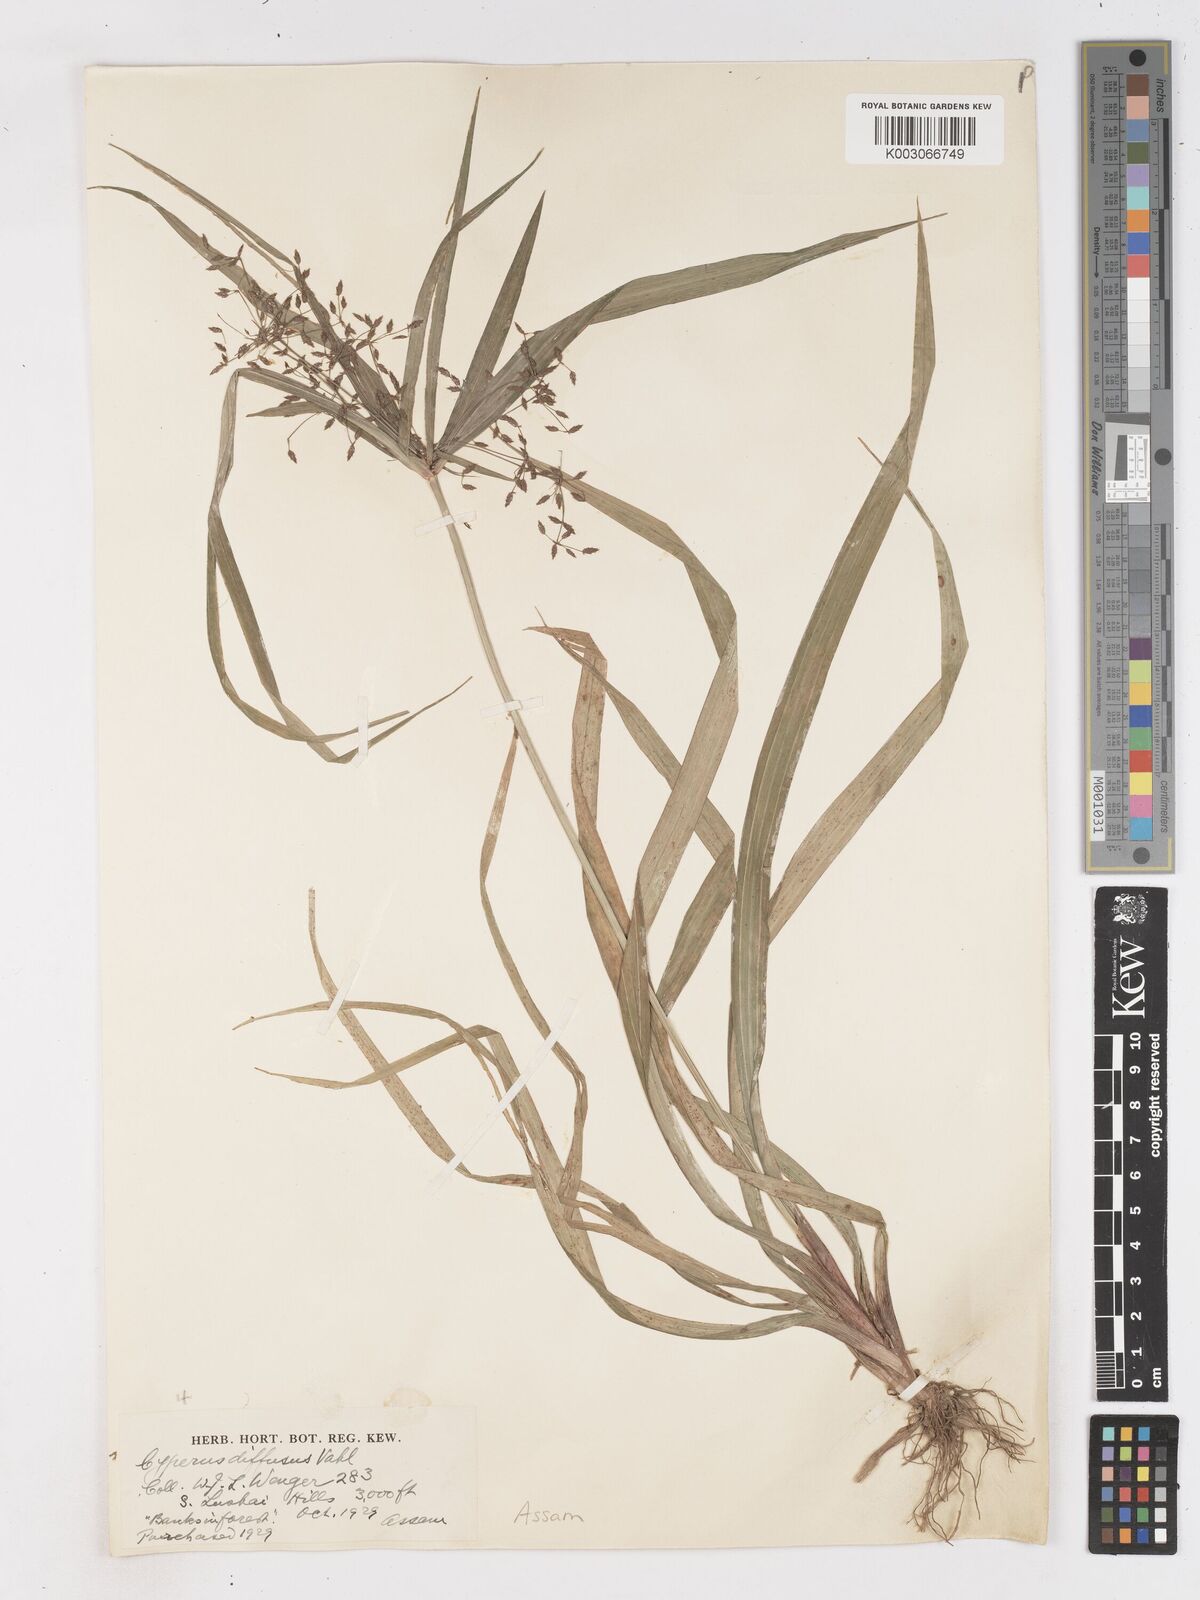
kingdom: Plantae
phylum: Tracheophyta
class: Liliopsida
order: Poales
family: Cyperaceae
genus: Cyperus
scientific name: Cyperus diffusus
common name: Dwarf umbrella grass
